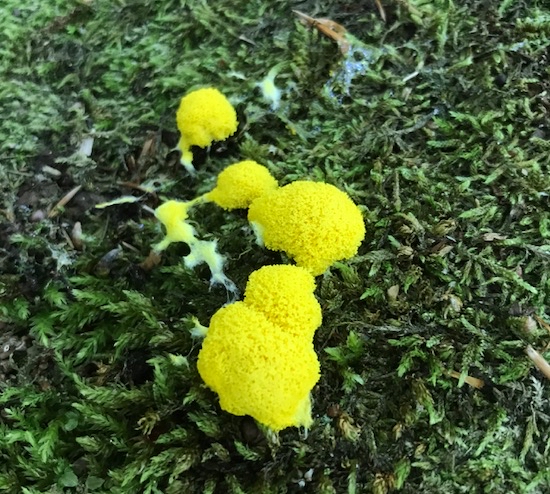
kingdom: Protozoa
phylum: Mycetozoa
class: Myxomycetes
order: Physarales
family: Physaraceae
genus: Fuligo
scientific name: Fuligo septica
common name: gul troldsmør
